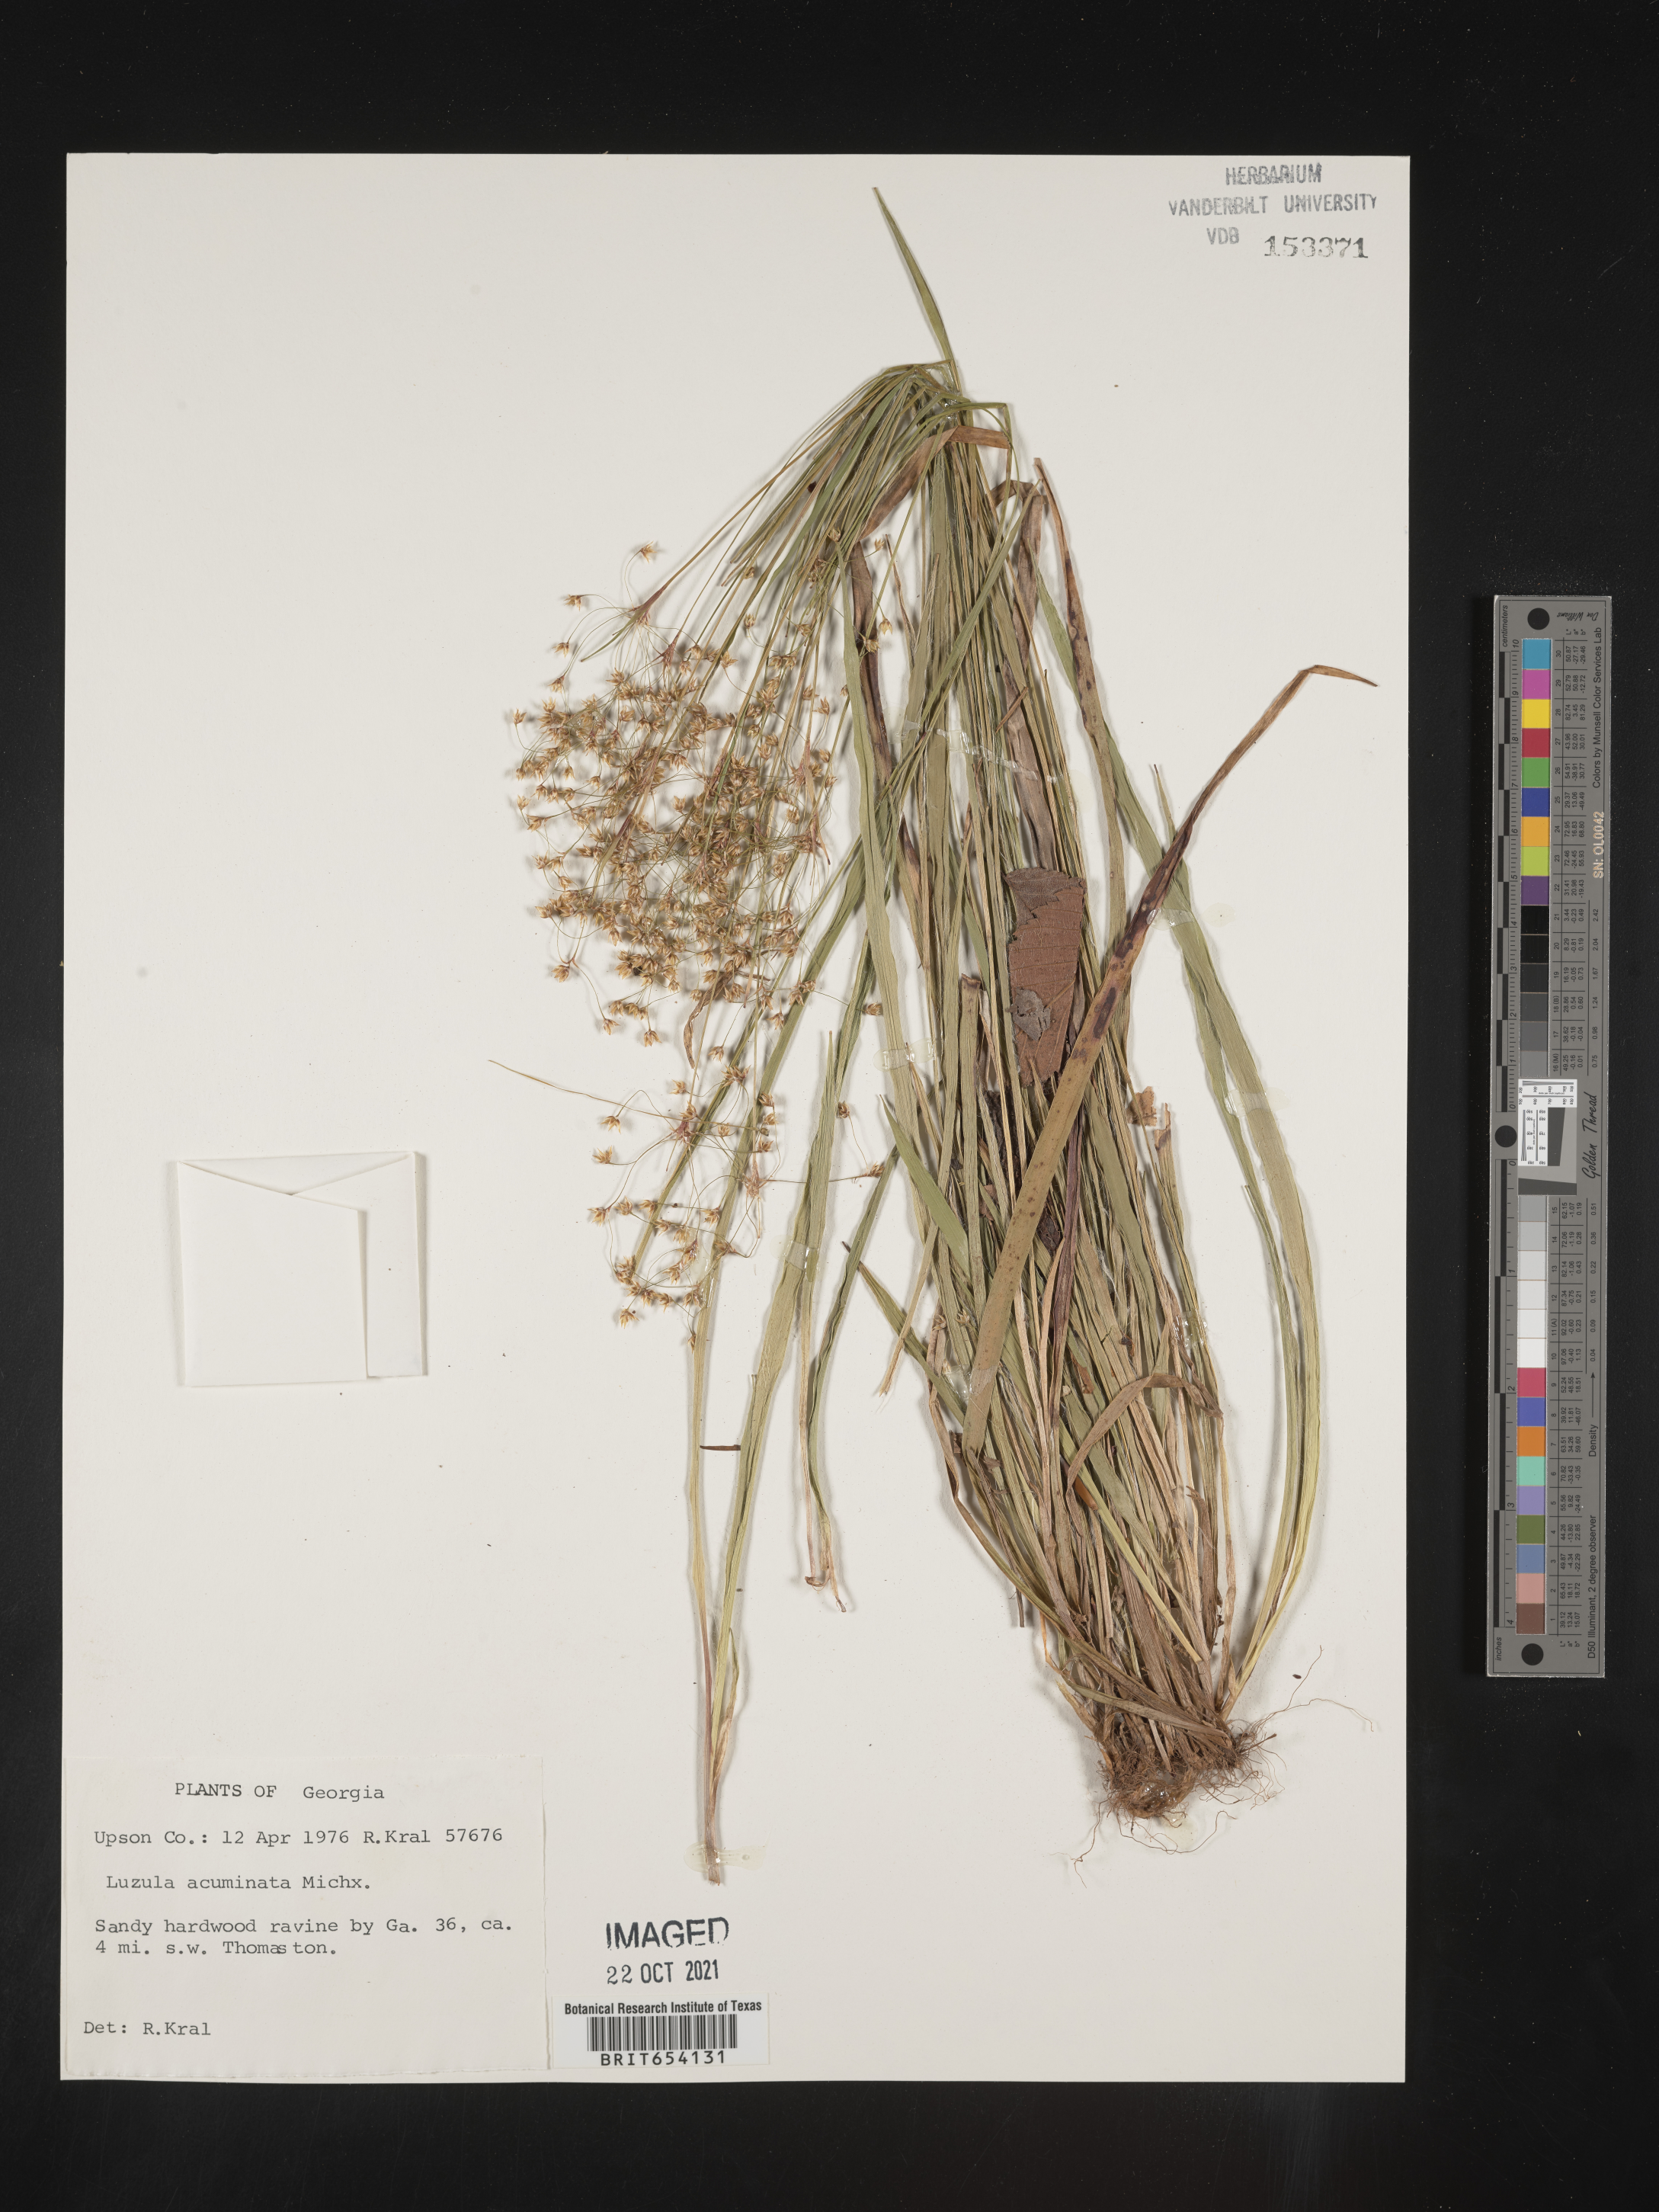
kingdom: Plantae
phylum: Tracheophyta
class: Liliopsida
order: Poales
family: Juncaceae
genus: Luzula
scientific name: Luzula acuminata
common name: Hairy woodrush
